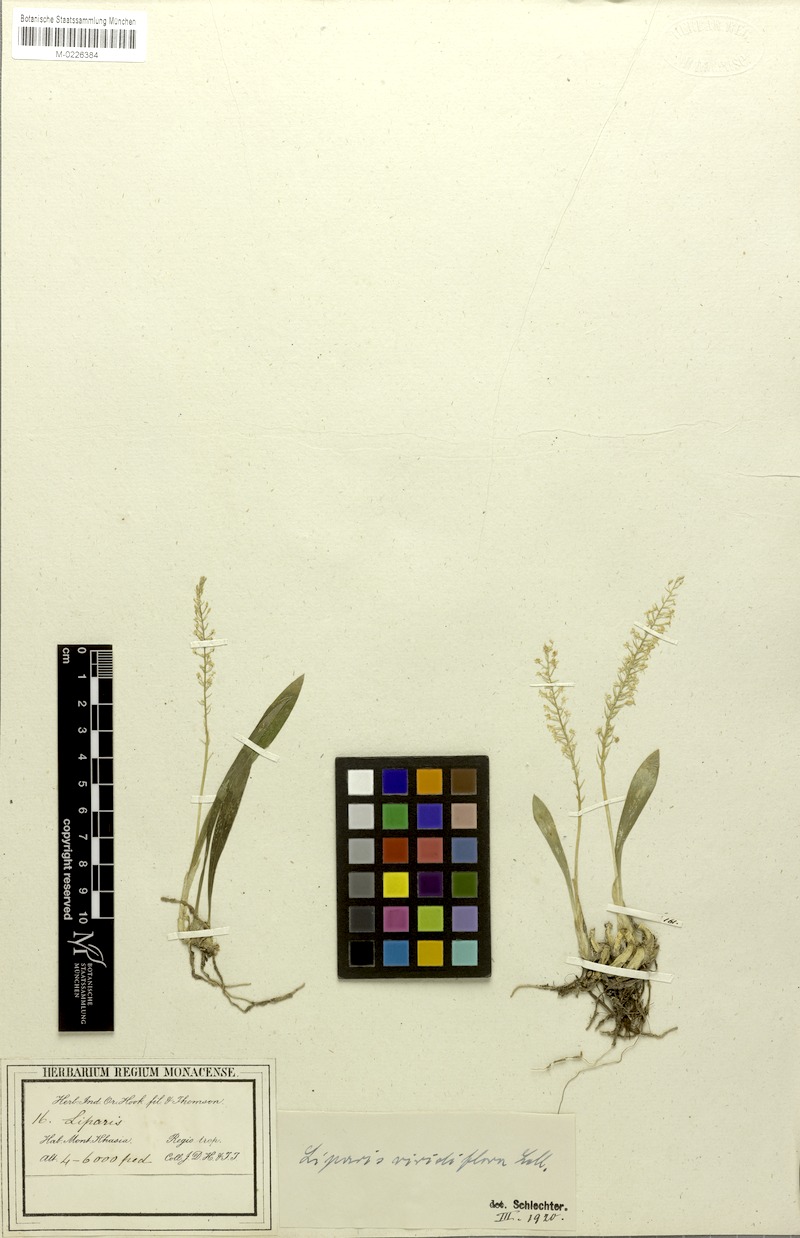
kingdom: Plantae
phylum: Tracheophyta
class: Liliopsida
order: Asparagales
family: Orchidaceae
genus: Liparis
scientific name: Liparis viridiflora
